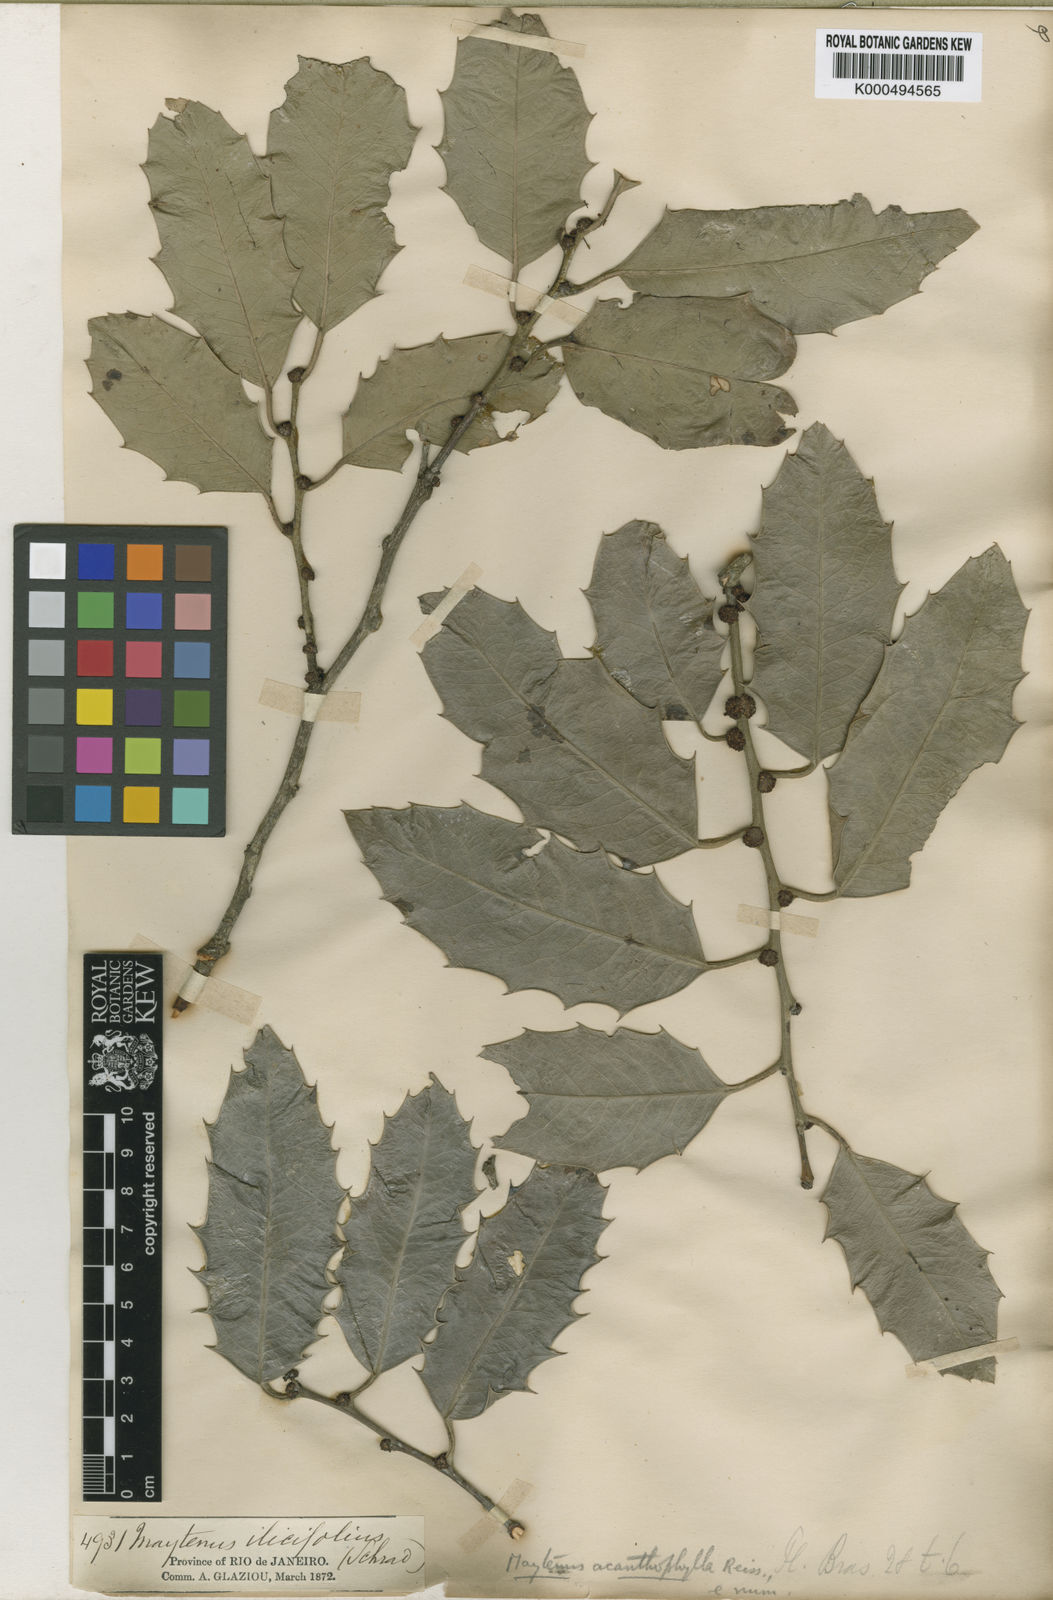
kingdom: Plantae
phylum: Tracheophyta
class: Magnoliopsida
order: Celastrales
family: Celastraceae
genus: Monteverdia
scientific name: Monteverdia acanthophylla
